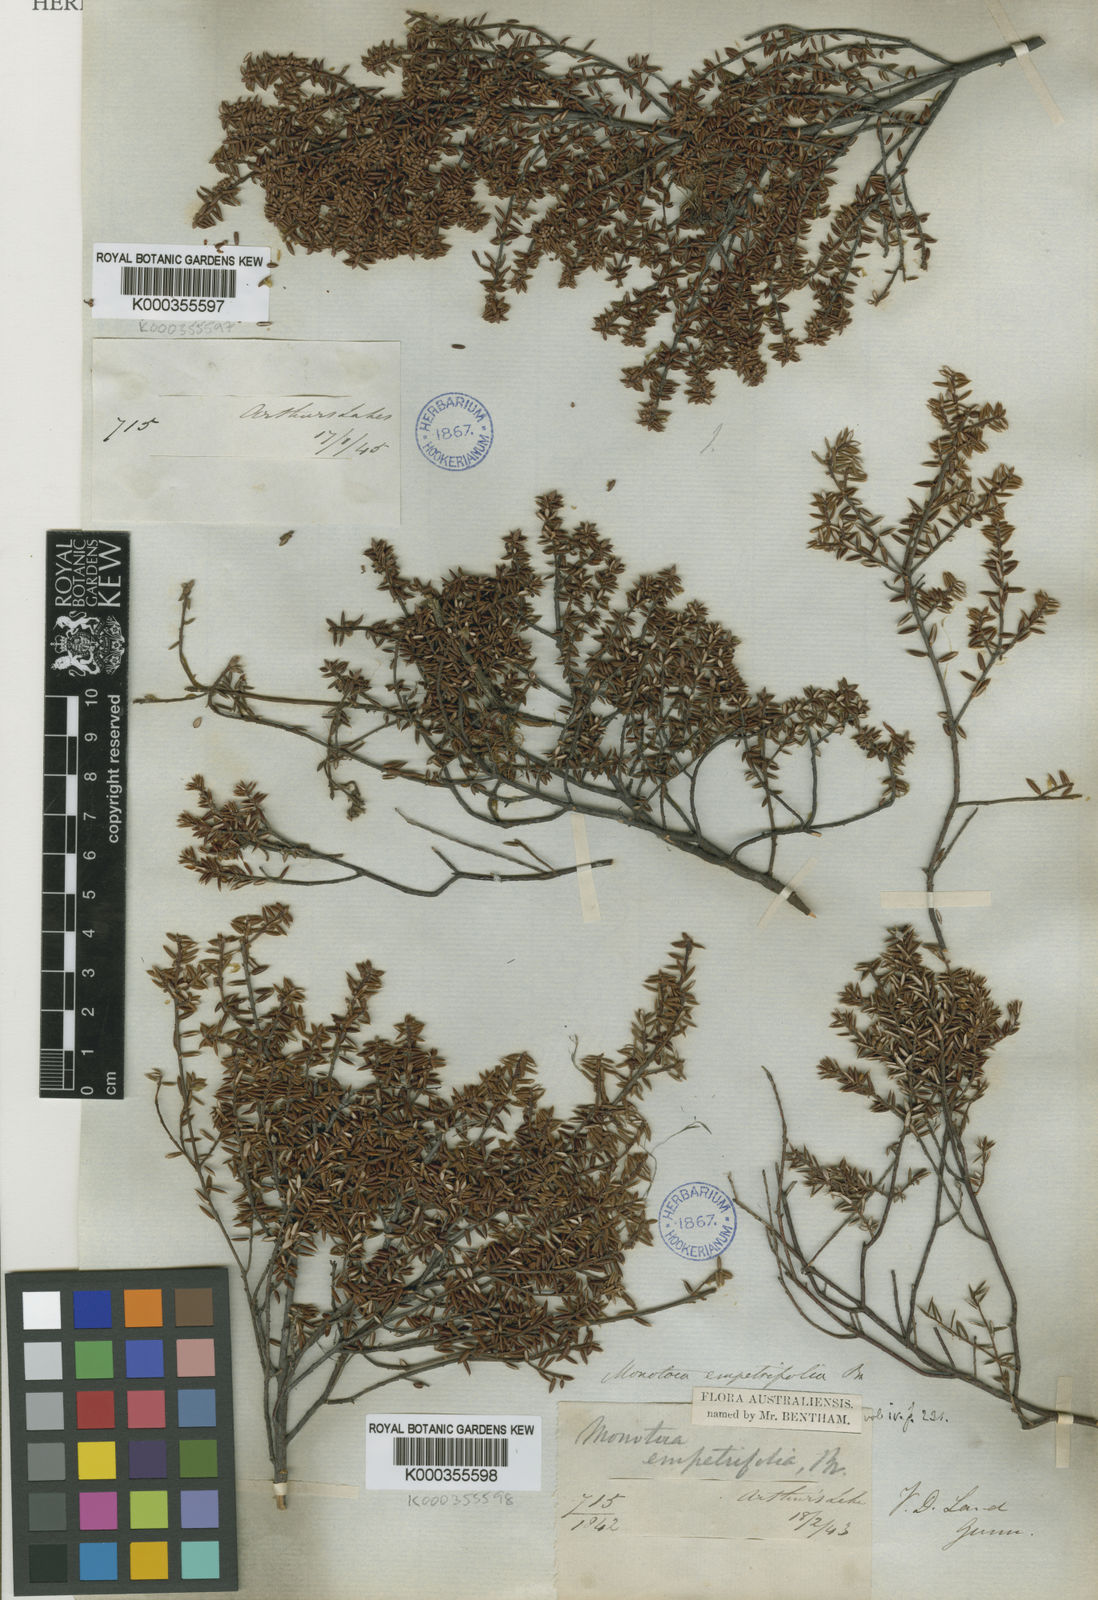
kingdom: Plantae
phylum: Tracheophyta
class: Magnoliopsida
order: Ericales
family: Ericaceae
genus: Monotoca
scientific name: Monotoca empetrifolia
